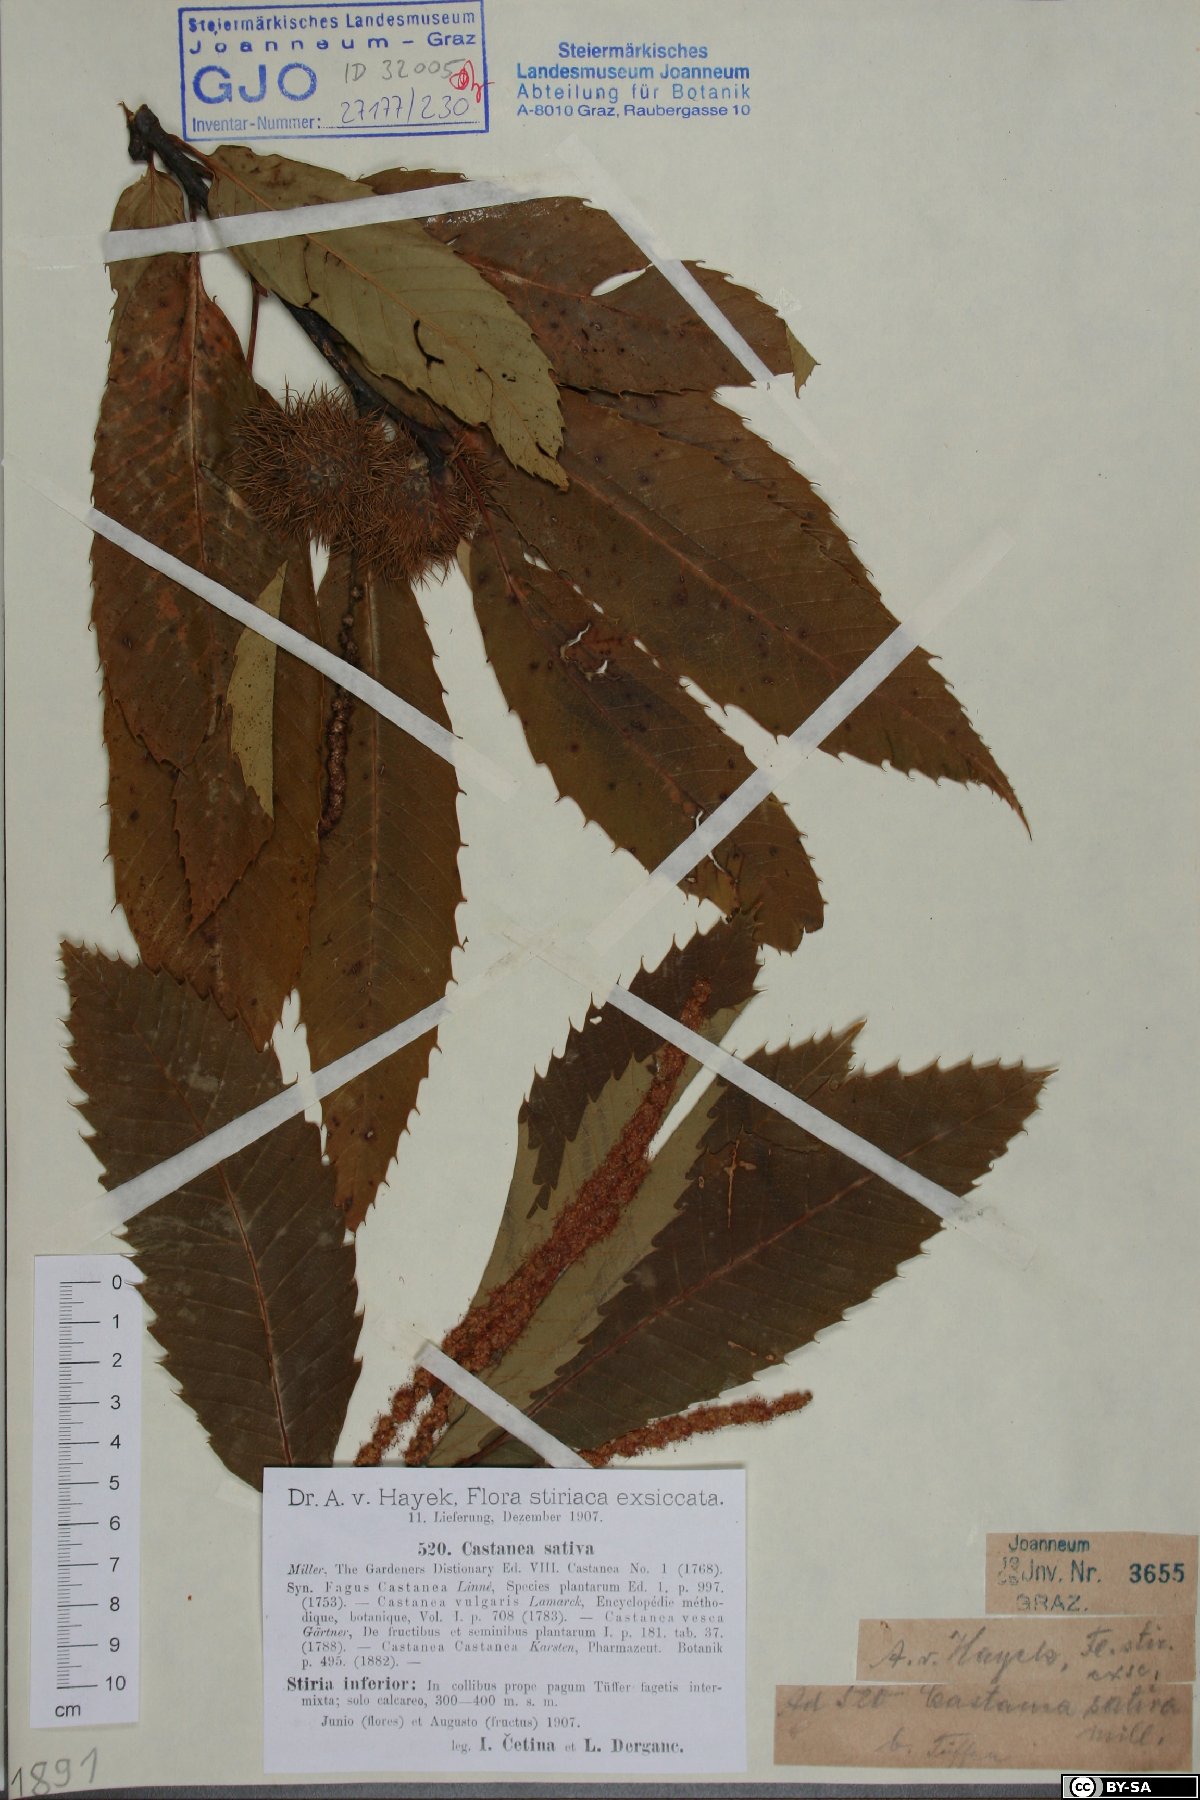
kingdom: Plantae
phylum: Tracheophyta
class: Magnoliopsida
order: Fagales
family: Fagaceae
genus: Castanea
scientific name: Castanea sativa
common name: Sweet chestnut
